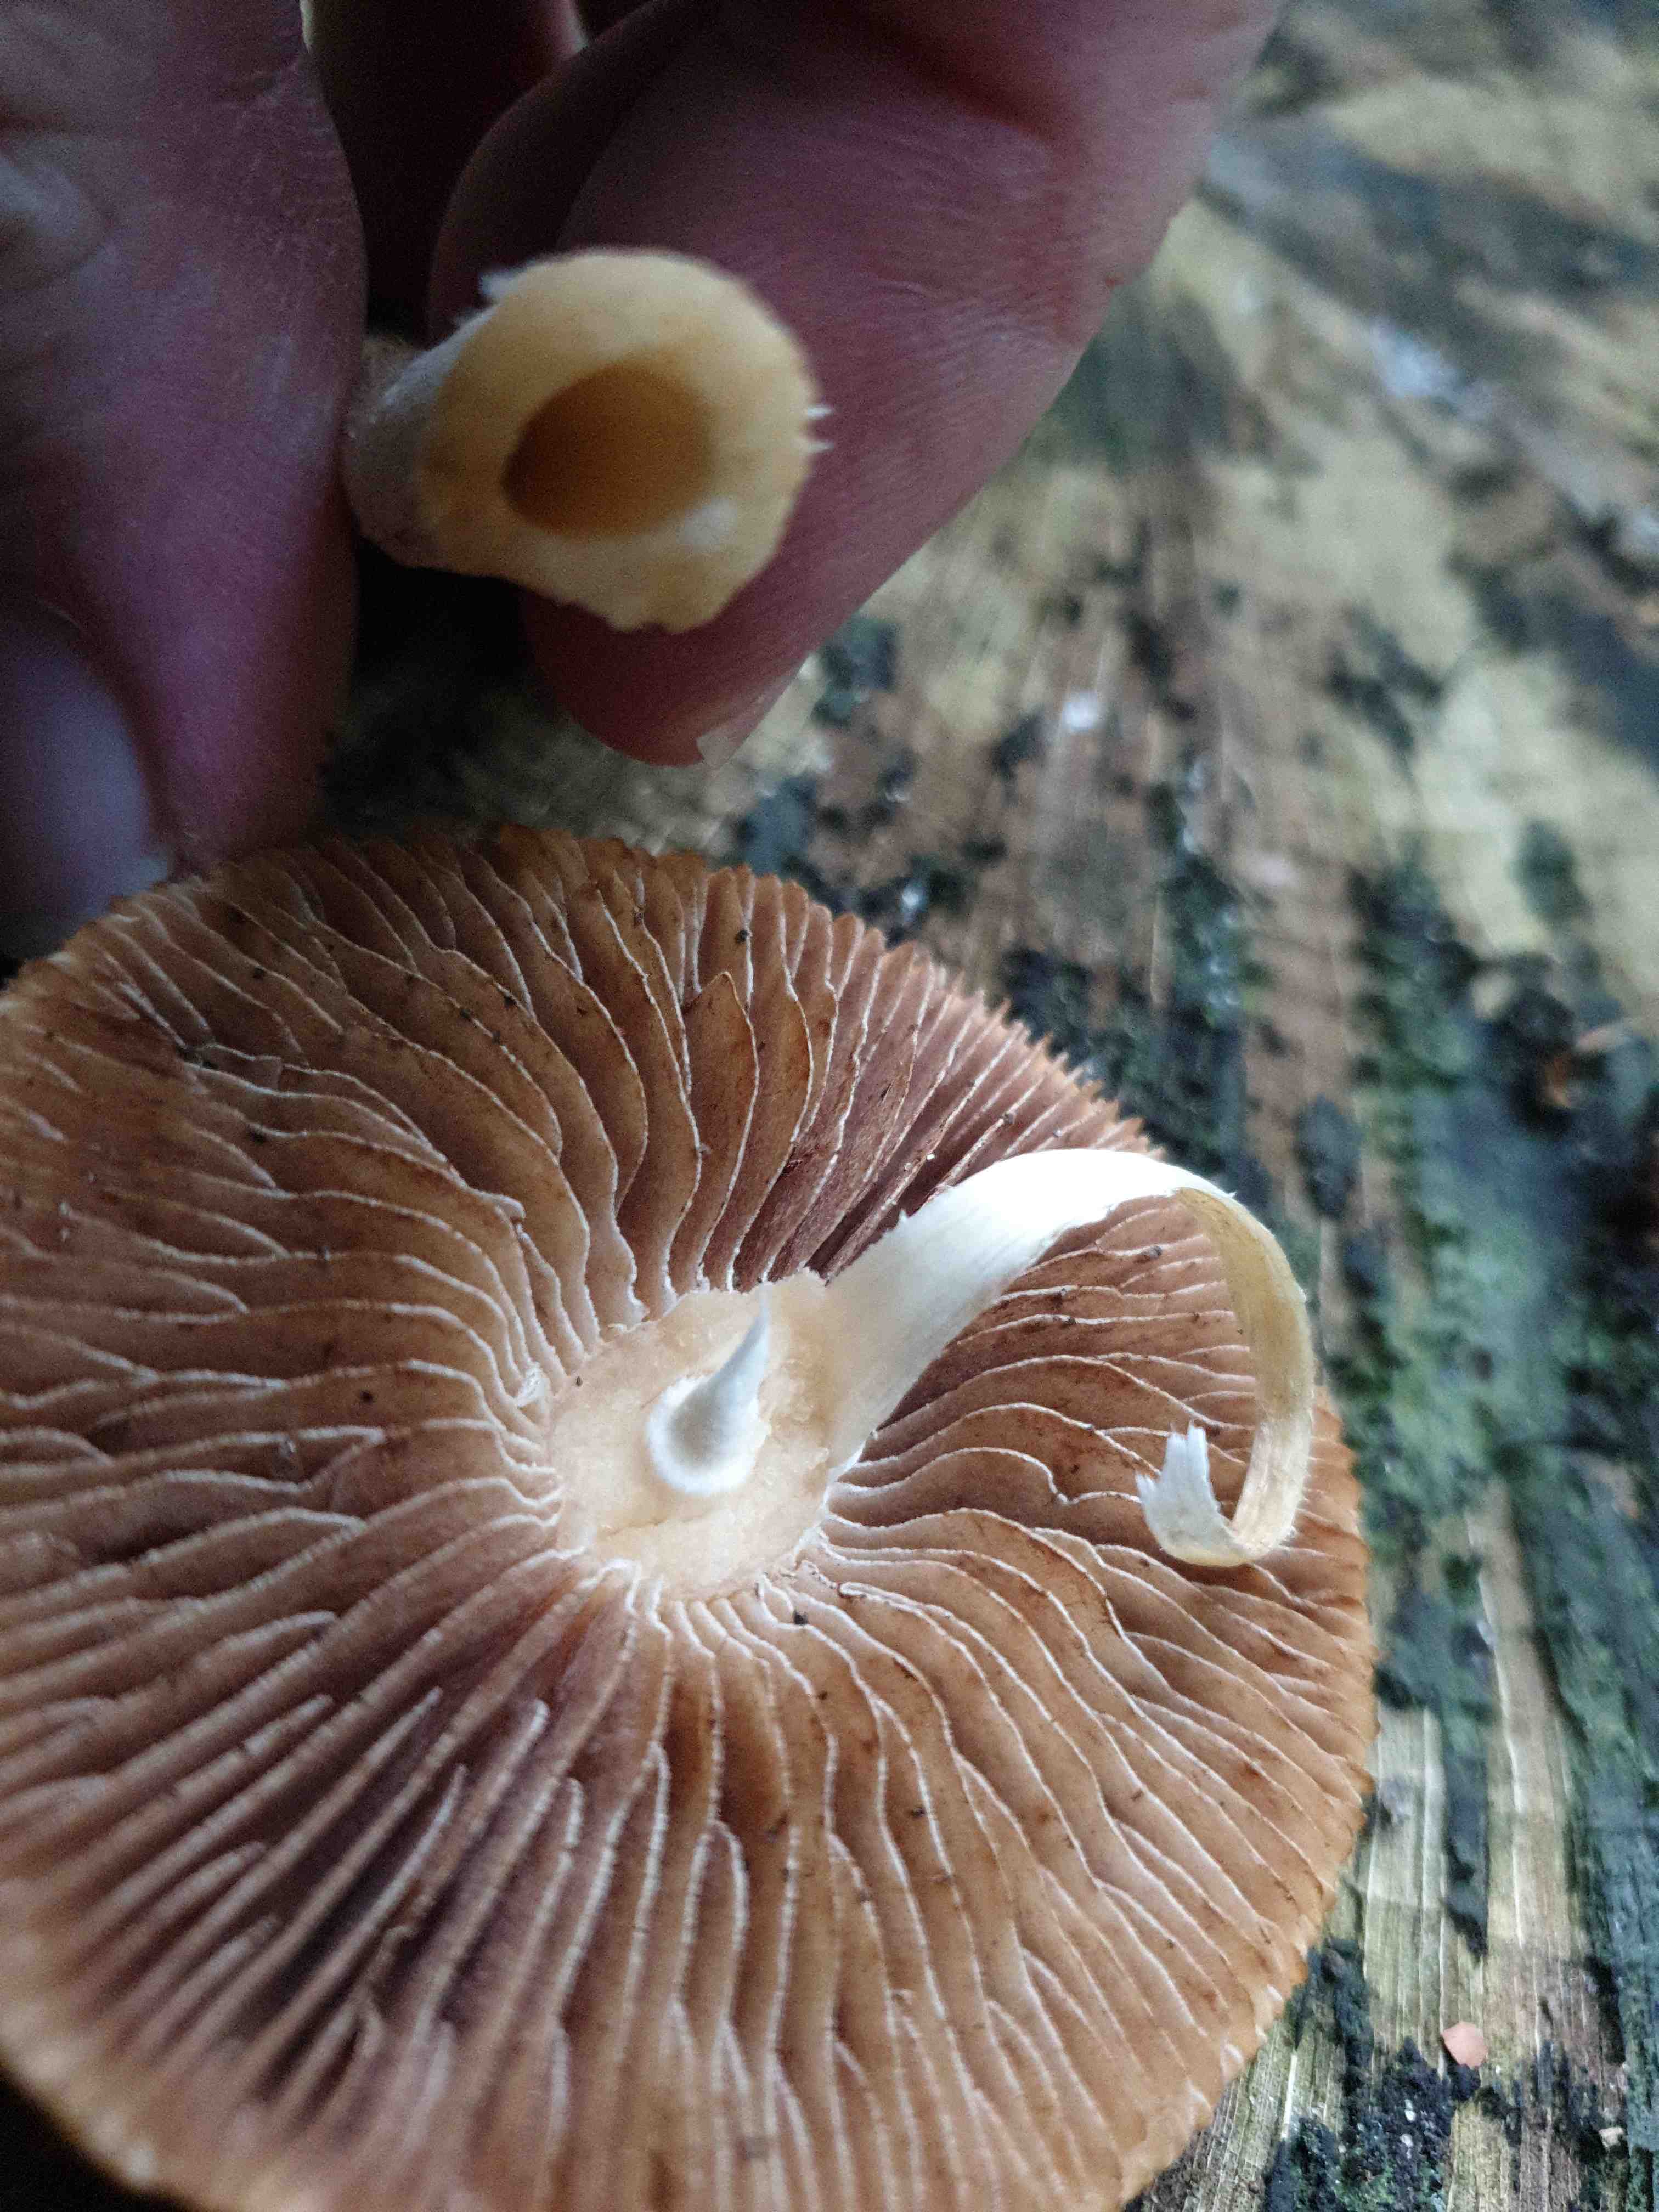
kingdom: Fungi
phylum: Basidiomycota
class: Agaricomycetes
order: Agaricales
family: Hymenogastraceae
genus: Hebeloma
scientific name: Hebeloma
